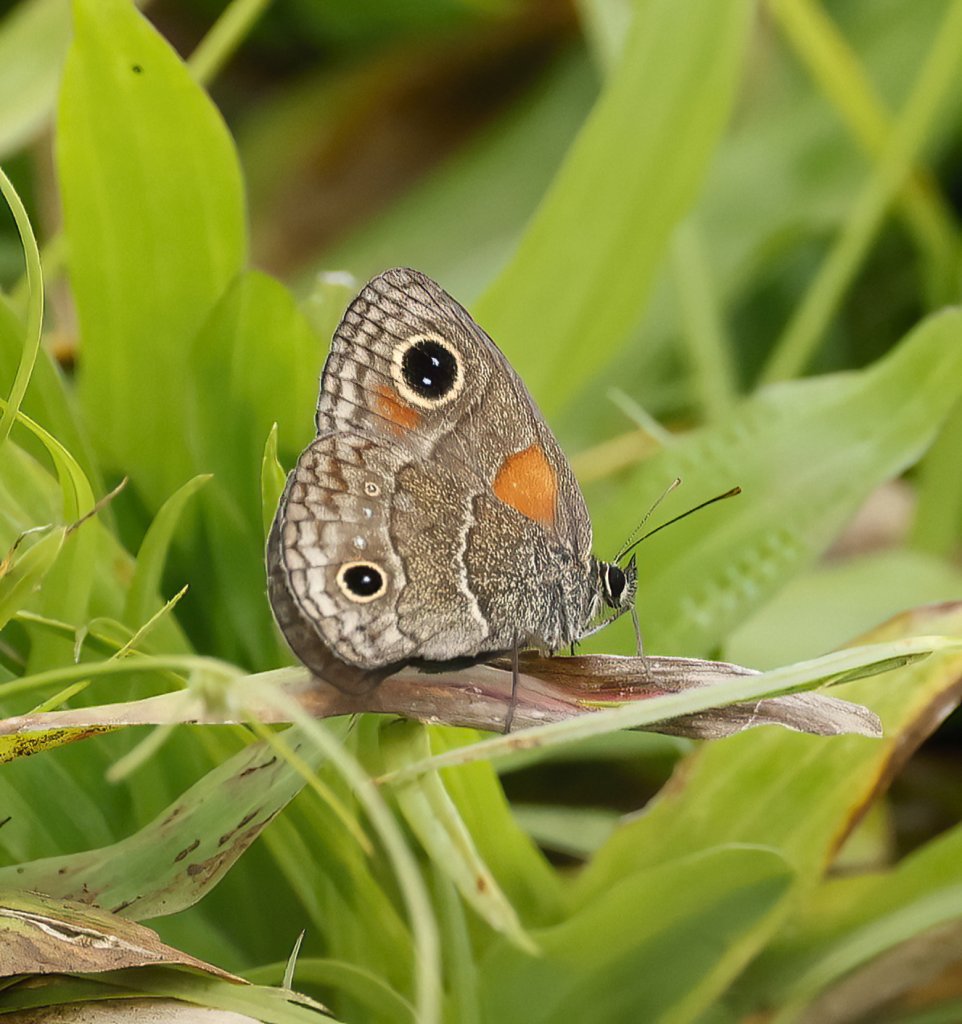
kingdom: Animalia
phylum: Arthropoda
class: Insecta
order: Lepidoptera
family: Nymphalidae
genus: Calisto
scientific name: Calisto
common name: Bates' Calisto
